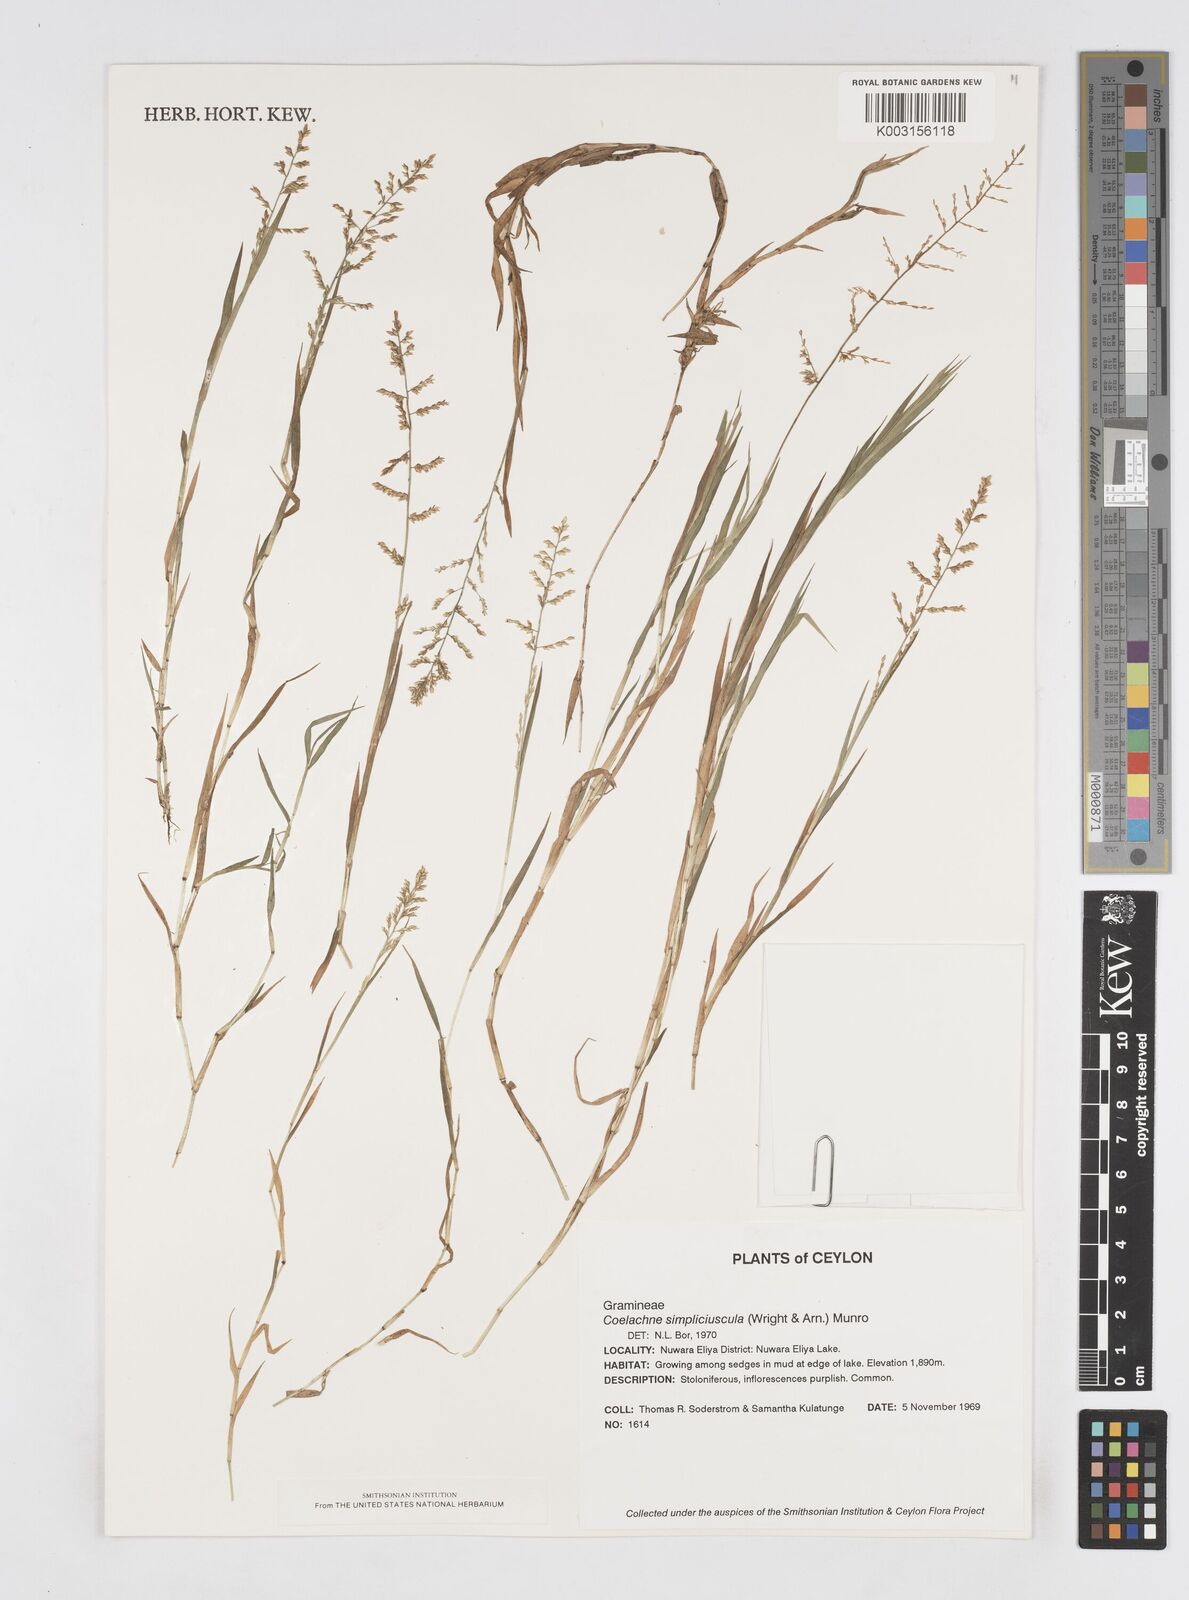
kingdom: Plantae
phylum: Tracheophyta
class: Liliopsida
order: Poales
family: Poaceae
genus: Coelachne
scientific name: Coelachne simpliciuscula
